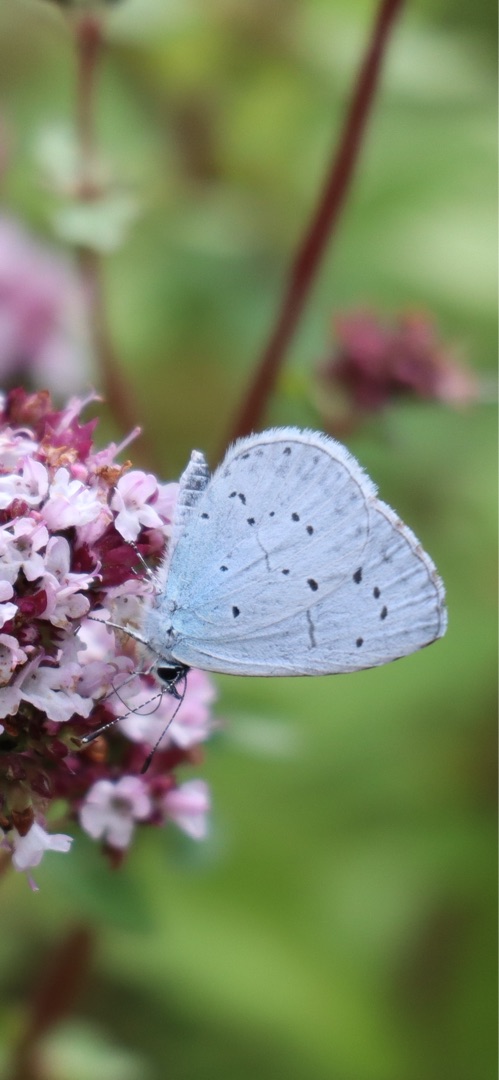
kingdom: Animalia
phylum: Arthropoda
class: Insecta
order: Lepidoptera
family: Lycaenidae
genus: Celastrina
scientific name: Celastrina argiolus
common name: Skovblåfugl
